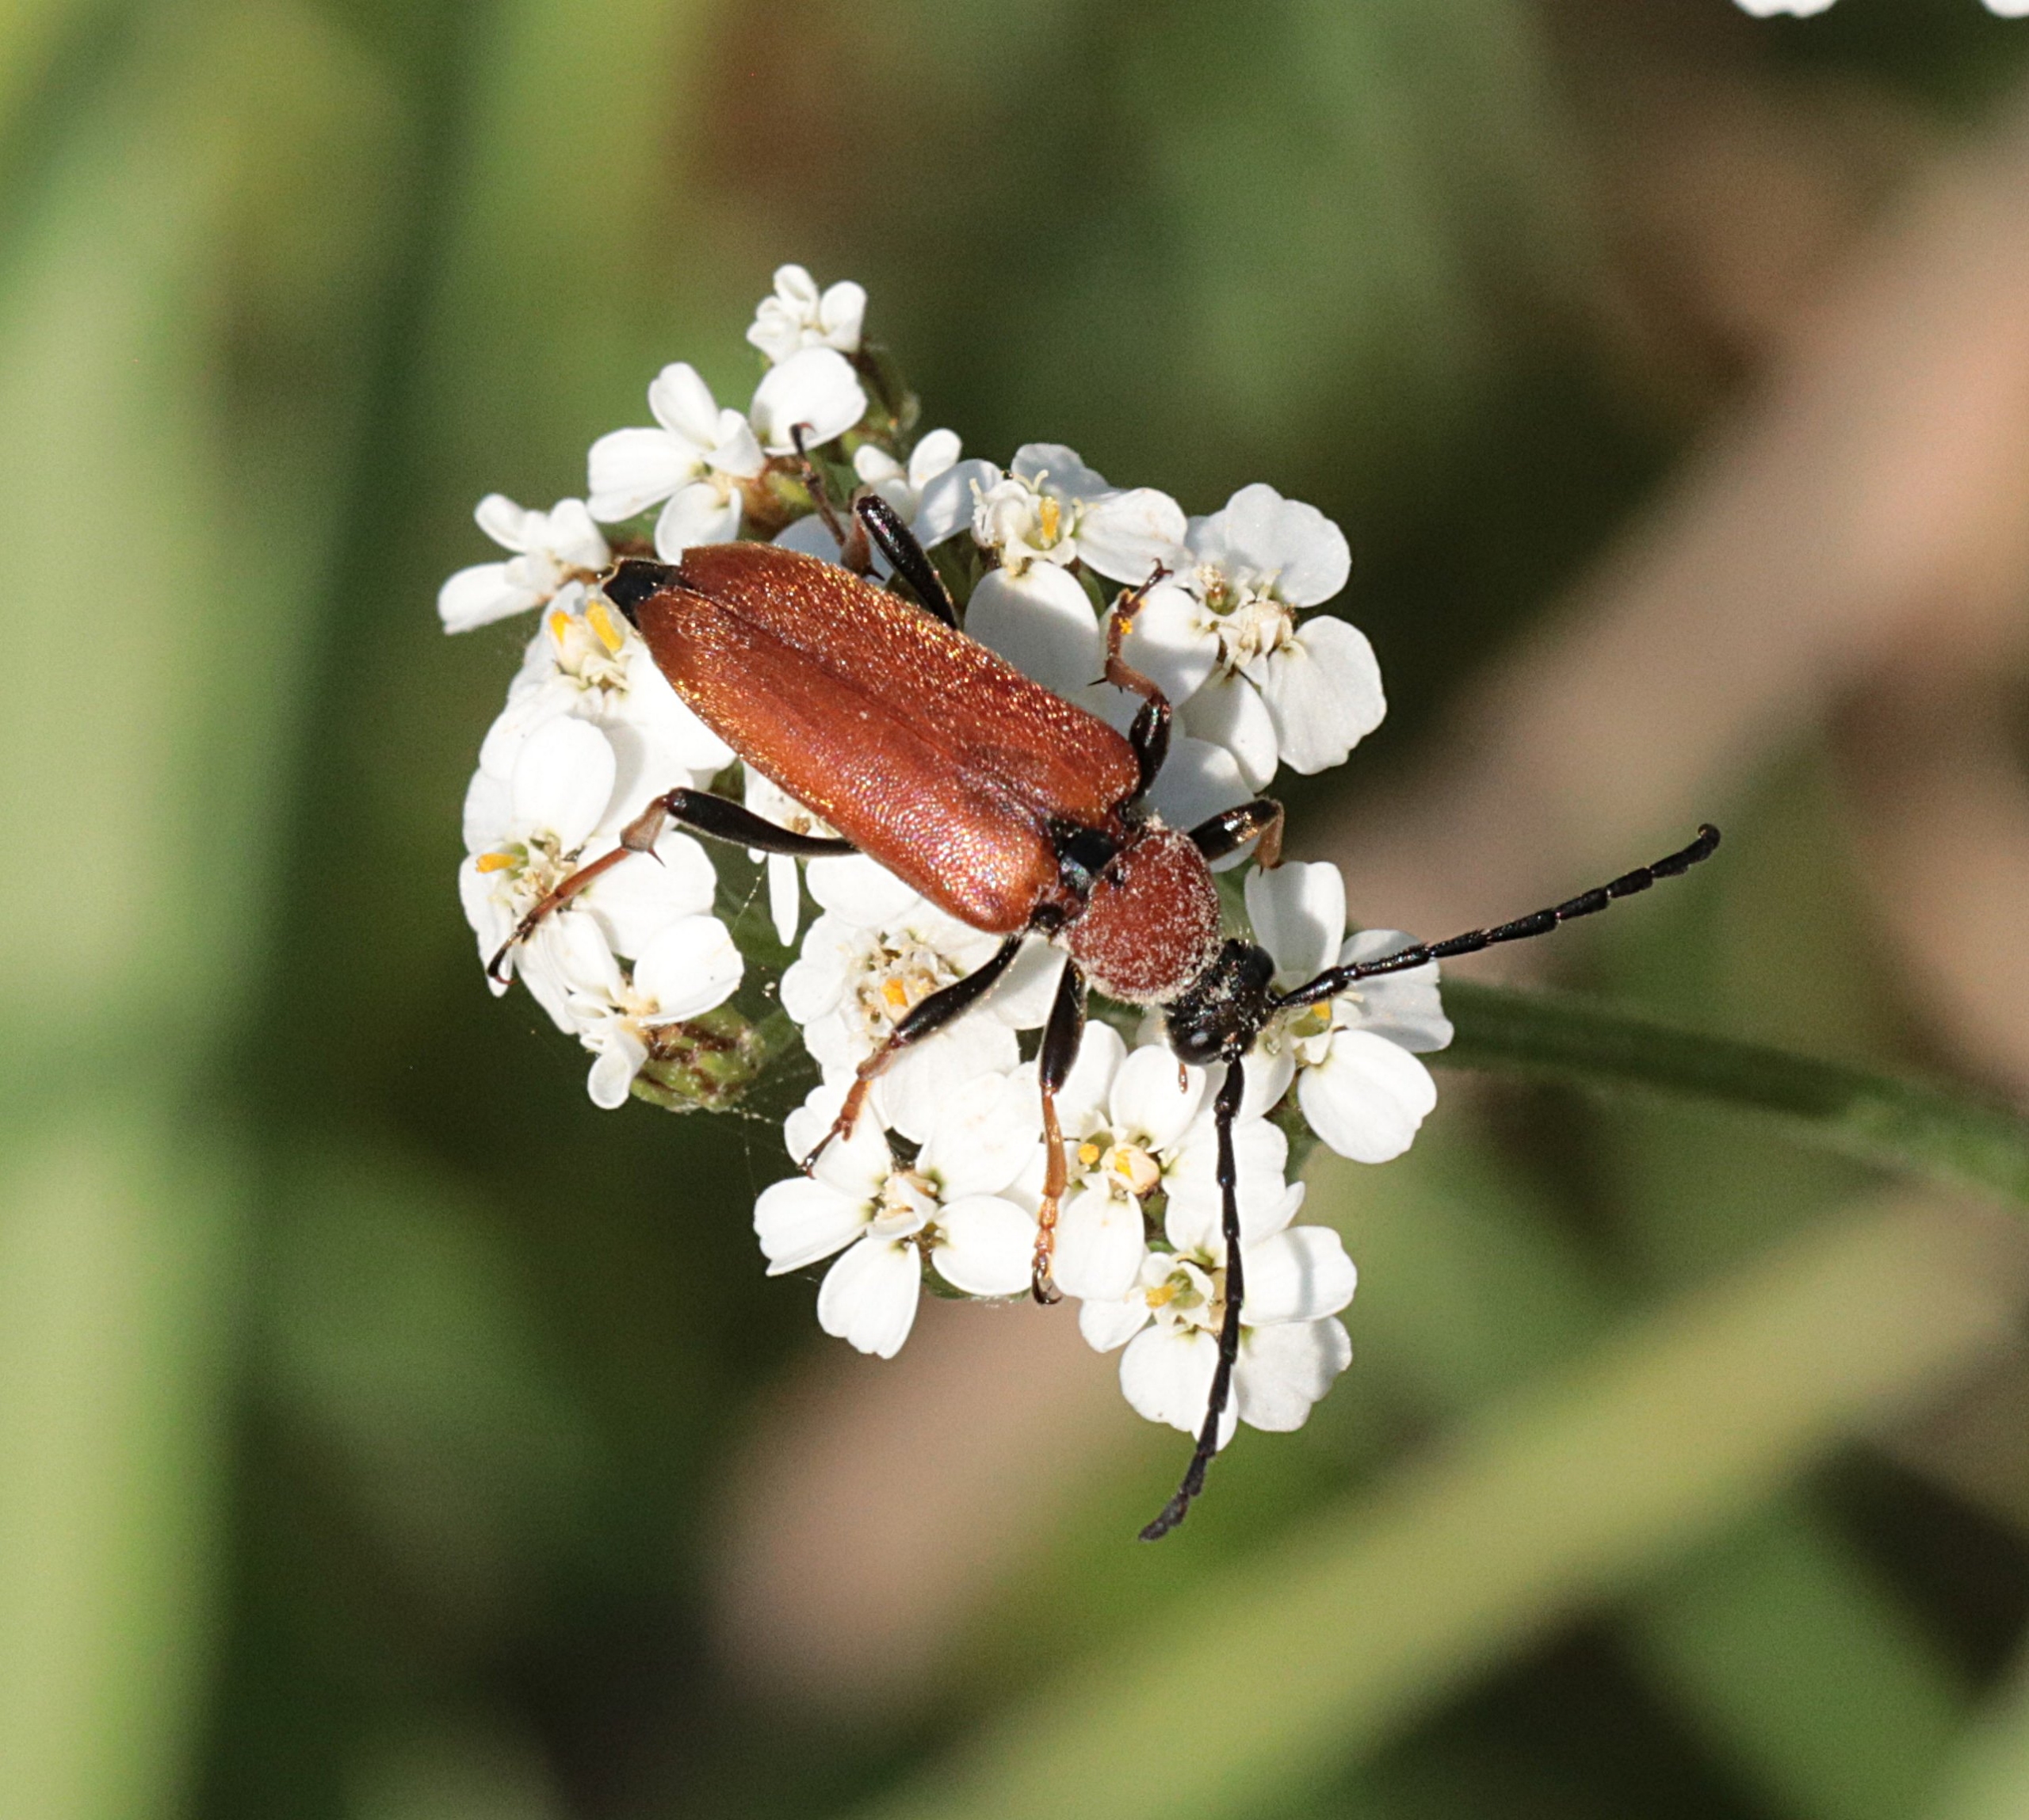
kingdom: Animalia
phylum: Arthropoda
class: Insecta
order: Coleoptera
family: Cerambycidae
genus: Stictoleptura
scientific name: Stictoleptura rubra
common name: Rød blomsterbuk
